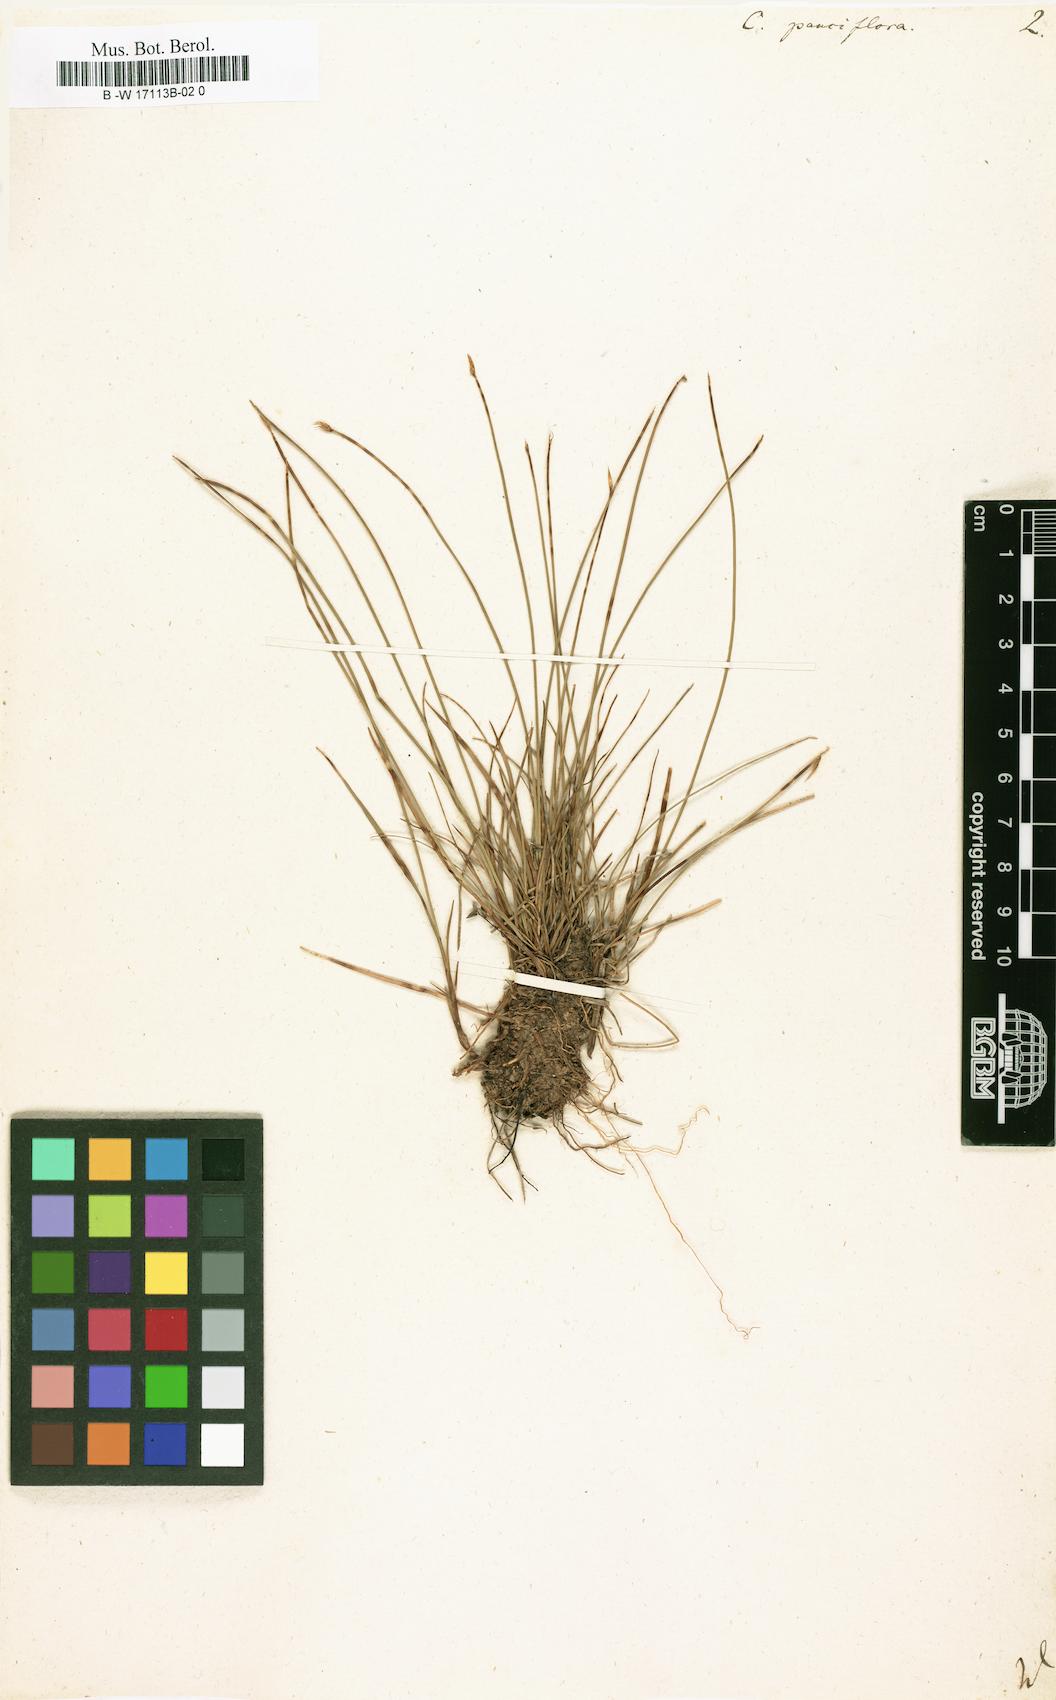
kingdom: Plantae
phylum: Tracheophyta
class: Liliopsida
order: Poales
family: Cyperaceae
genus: Carex
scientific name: Carex pauciflora
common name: Few-flowered sedge
